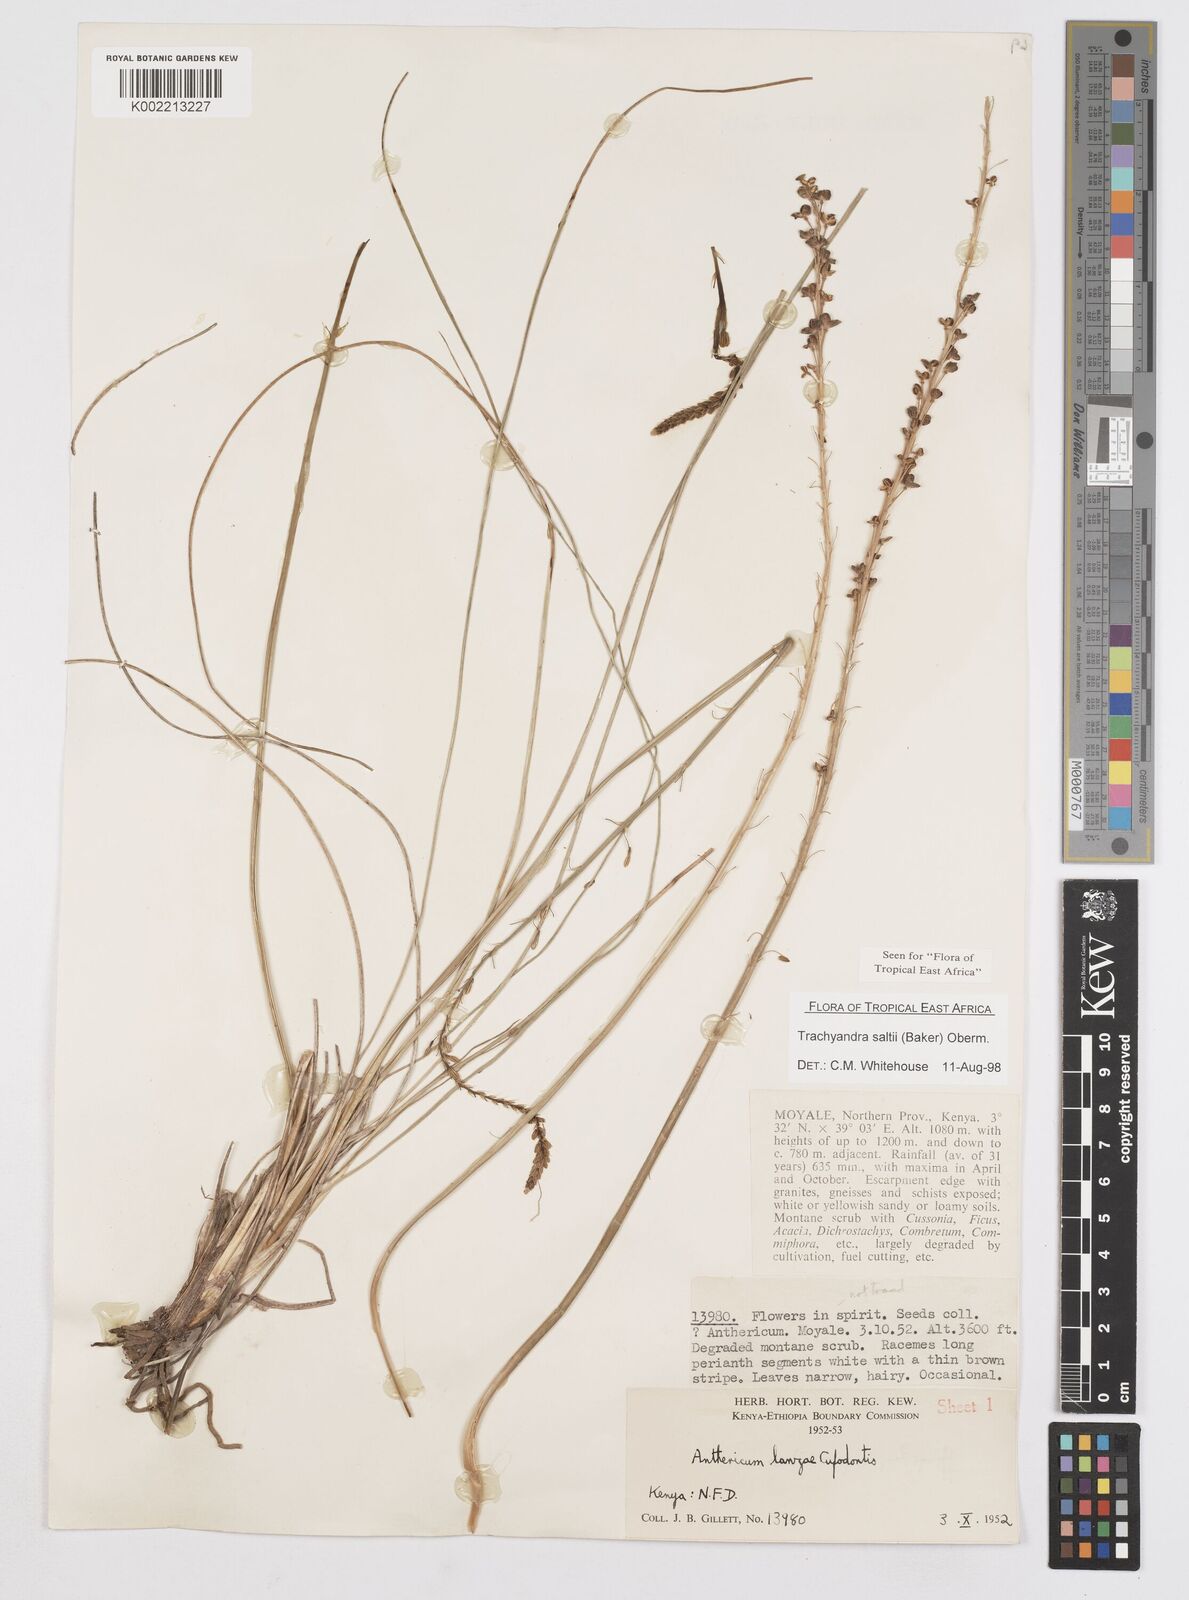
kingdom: Plantae
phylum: Tracheophyta
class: Liliopsida
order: Asparagales
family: Asphodelaceae
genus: Trachyandra
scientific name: Trachyandra saltii
